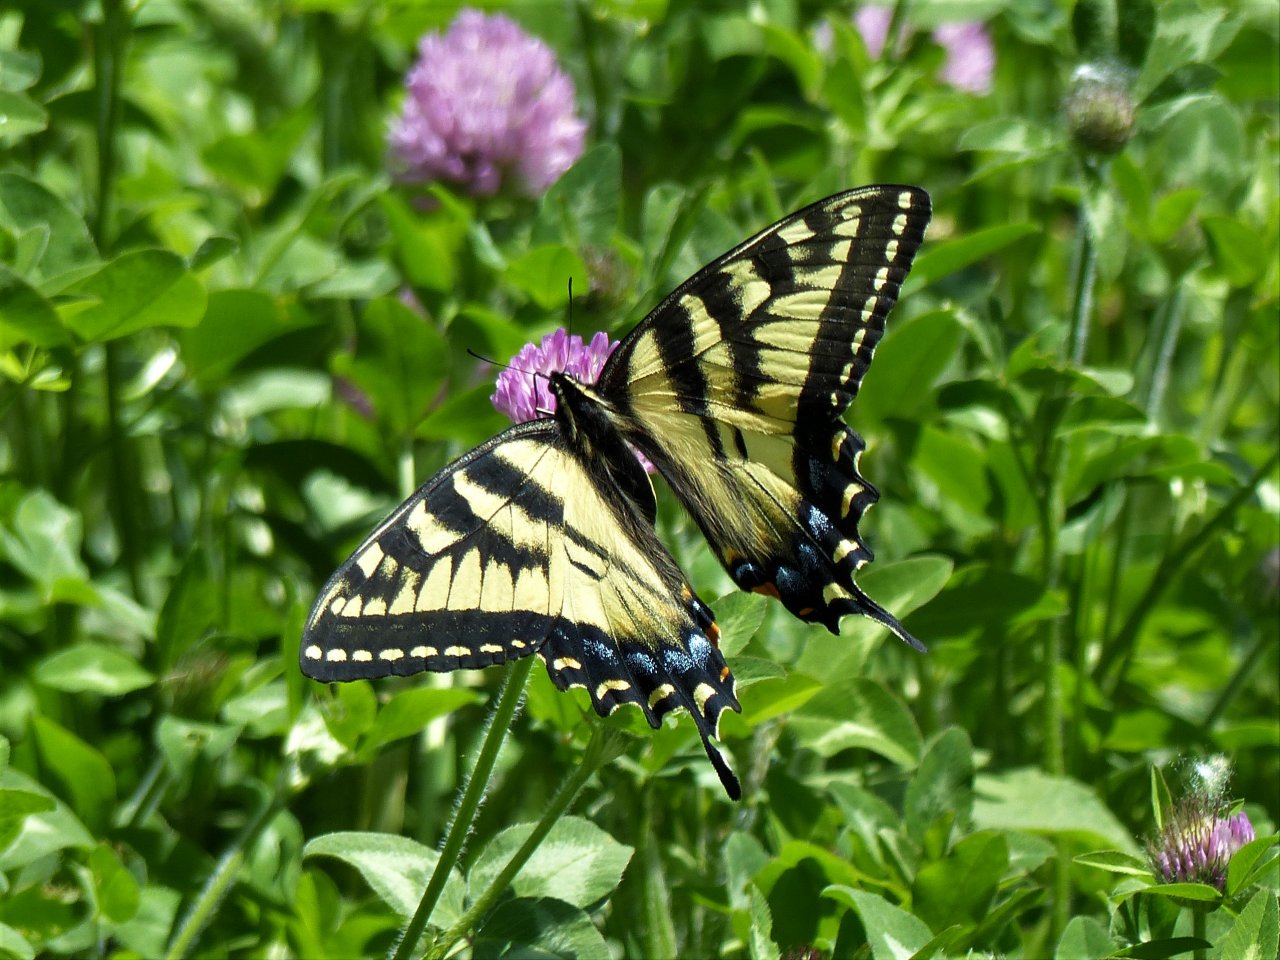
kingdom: Animalia
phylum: Arthropoda
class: Insecta
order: Lepidoptera
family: Papilionidae
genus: Pterourus
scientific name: Pterourus canadensis
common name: Canadian Tiger Swallowtail
